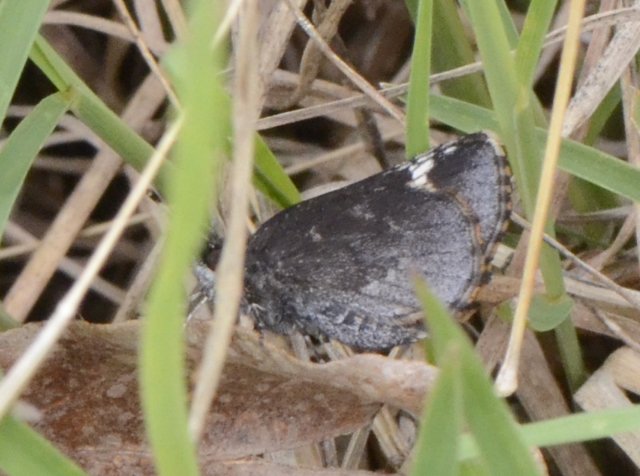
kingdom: Animalia
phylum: Arthropoda
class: Insecta
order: Lepidoptera
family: Hesperiidae
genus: Mastor
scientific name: Mastor vialis
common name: Common Roadside-Skipper
